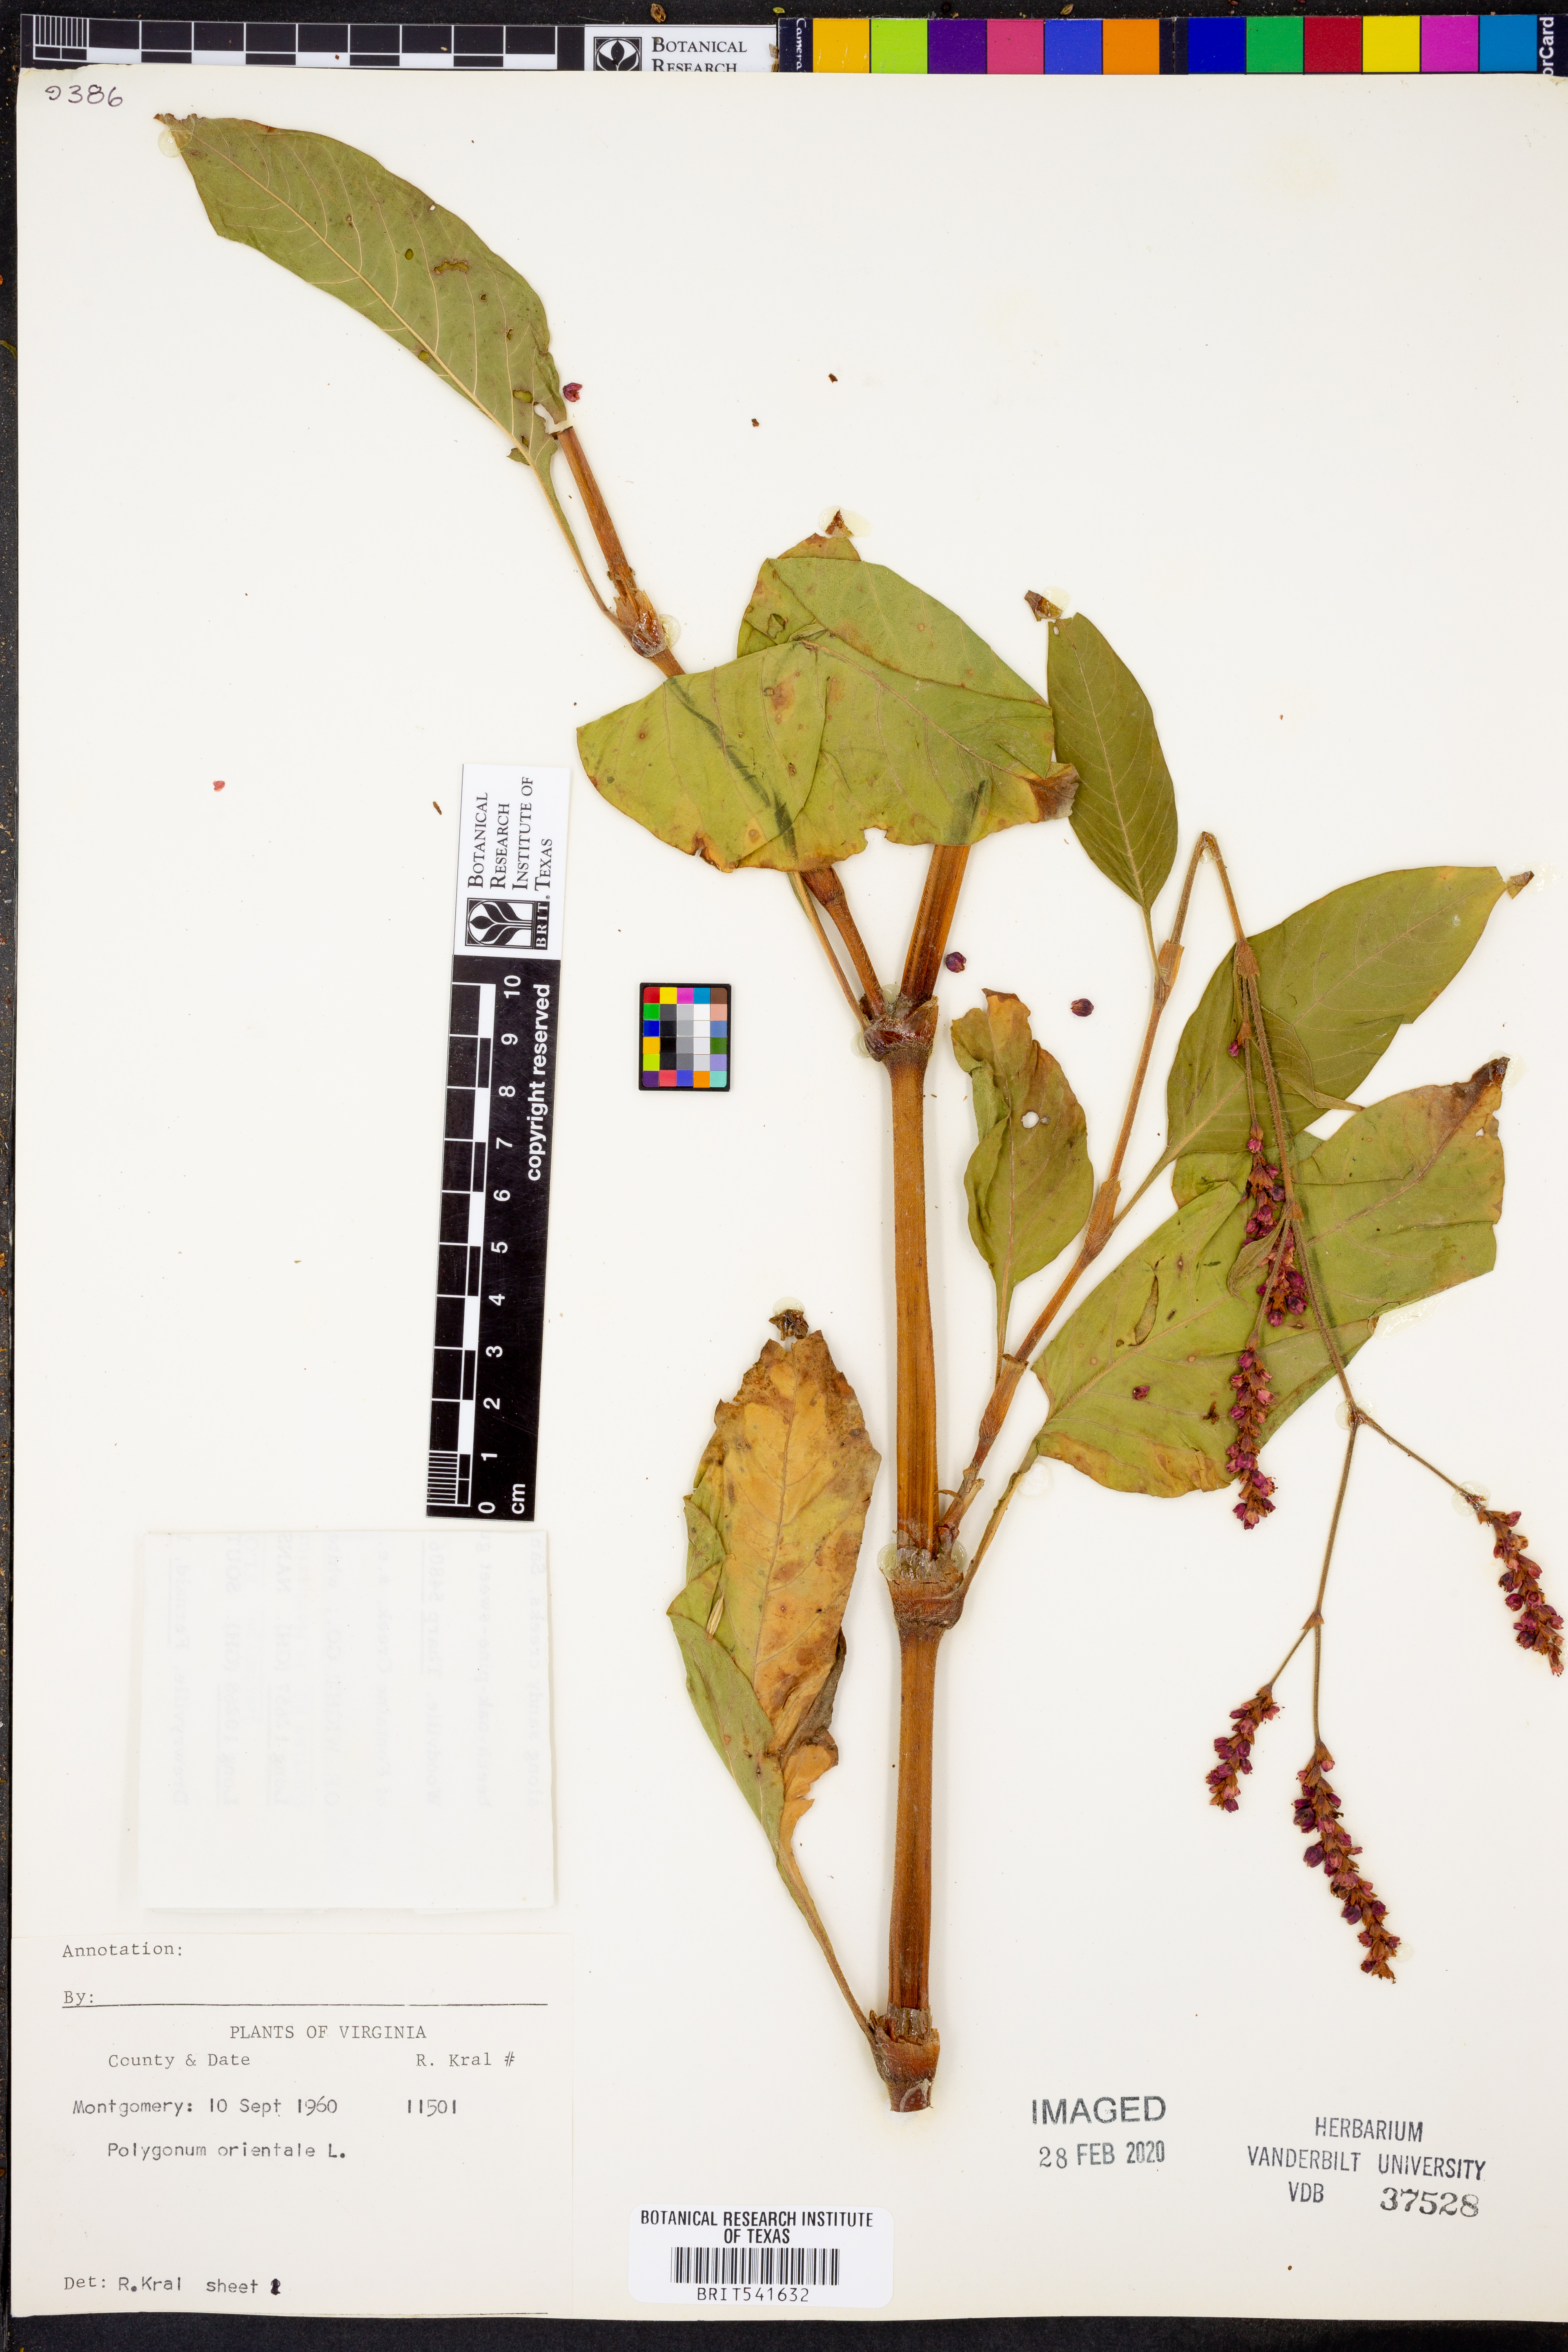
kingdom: Plantae
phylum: Tracheophyta
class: Magnoliopsida
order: Caryophyllales
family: Polygonaceae
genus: Persicaria
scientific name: Persicaria orientalis
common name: Kiss-me-over-the-garden-gate
